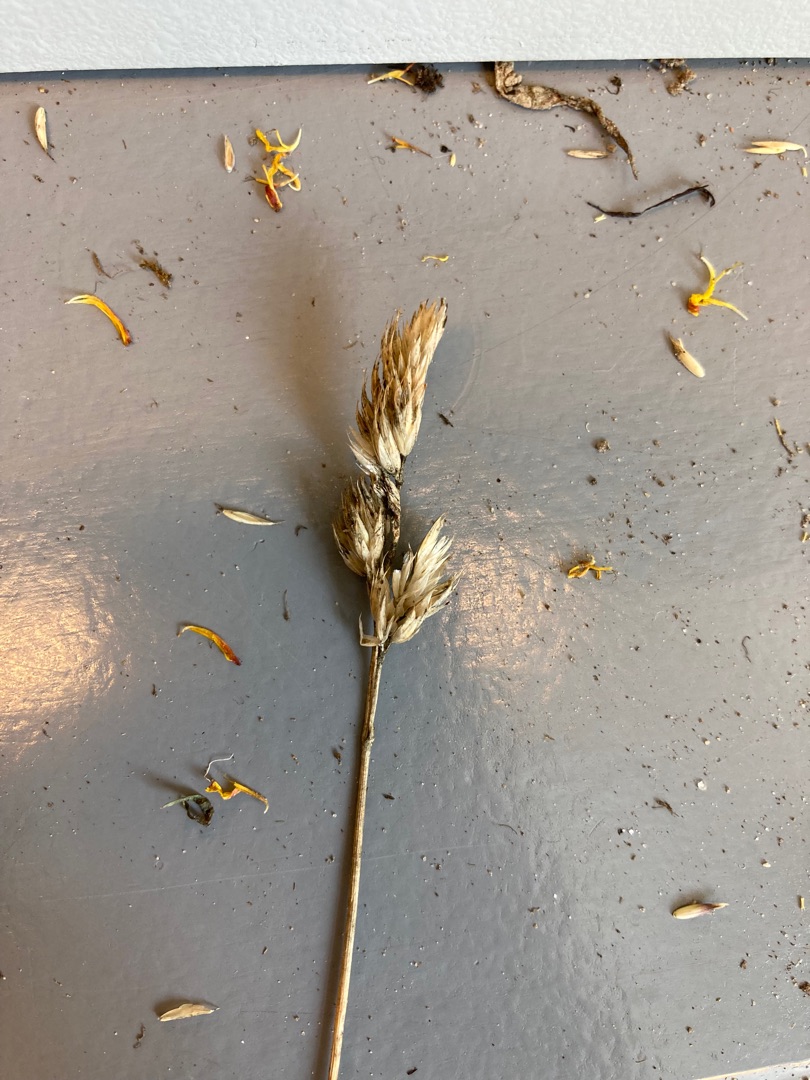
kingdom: Plantae
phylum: Tracheophyta
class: Liliopsida
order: Poales
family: Poaceae
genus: Dactylis
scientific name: Dactylis glomerata
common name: Almindelig hundegræs
